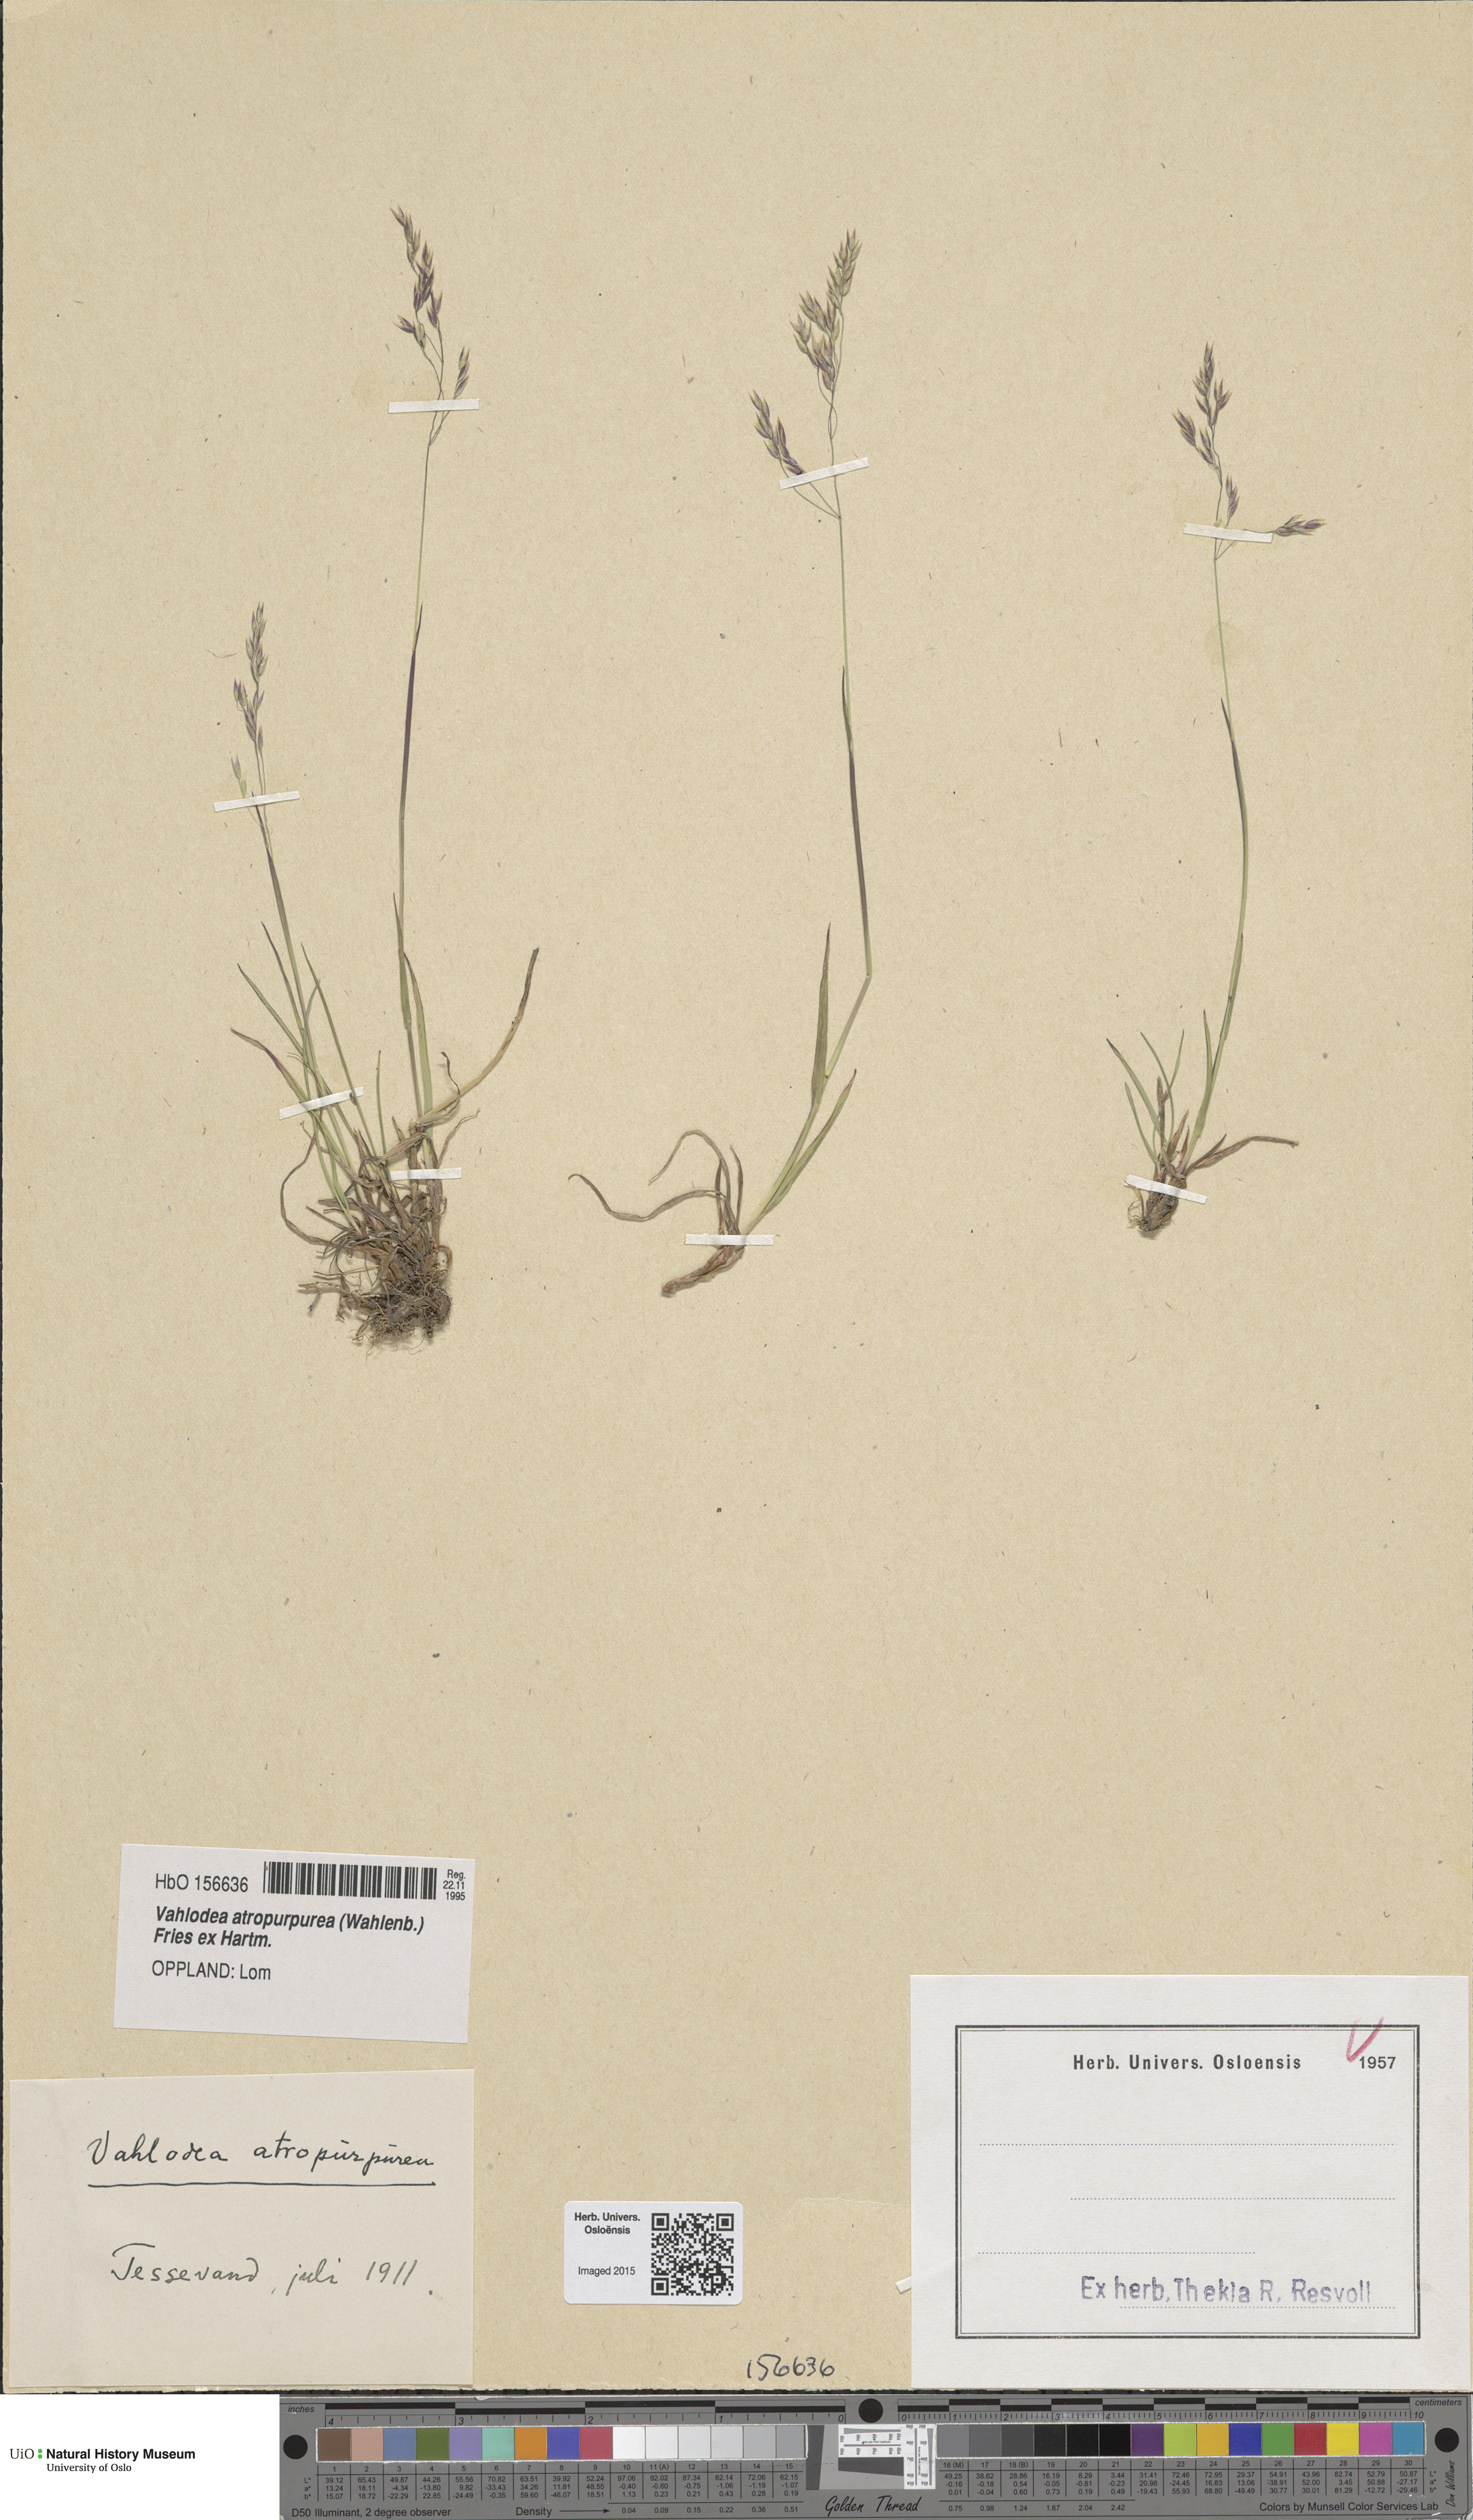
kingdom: Plantae
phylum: Tracheophyta
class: Liliopsida
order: Poales
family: Poaceae
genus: Vahlodea
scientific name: Vahlodea atropurpurea
